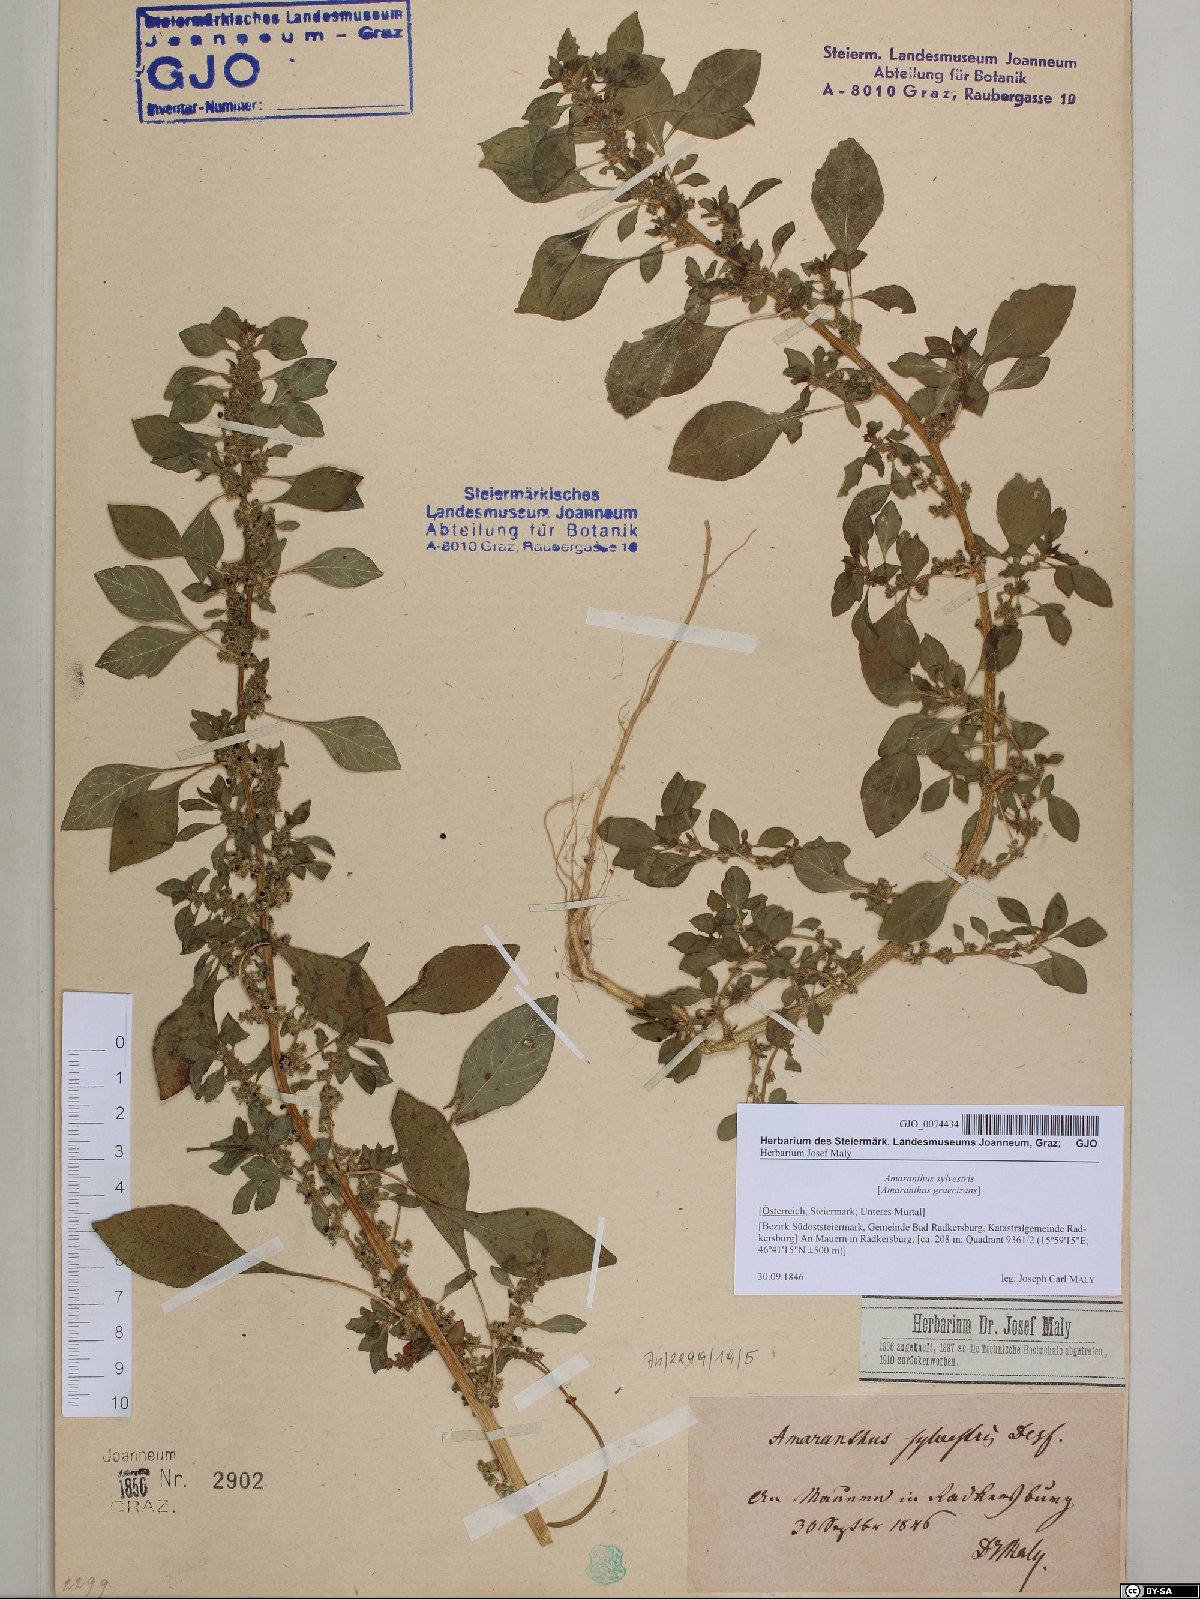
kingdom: Plantae
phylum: Tracheophyta
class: Magnoliopsida
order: Caryophyllales
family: Amaranthaceae
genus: Amaranthus
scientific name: Amaranthus graecizans
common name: Mediterranean amaranth
